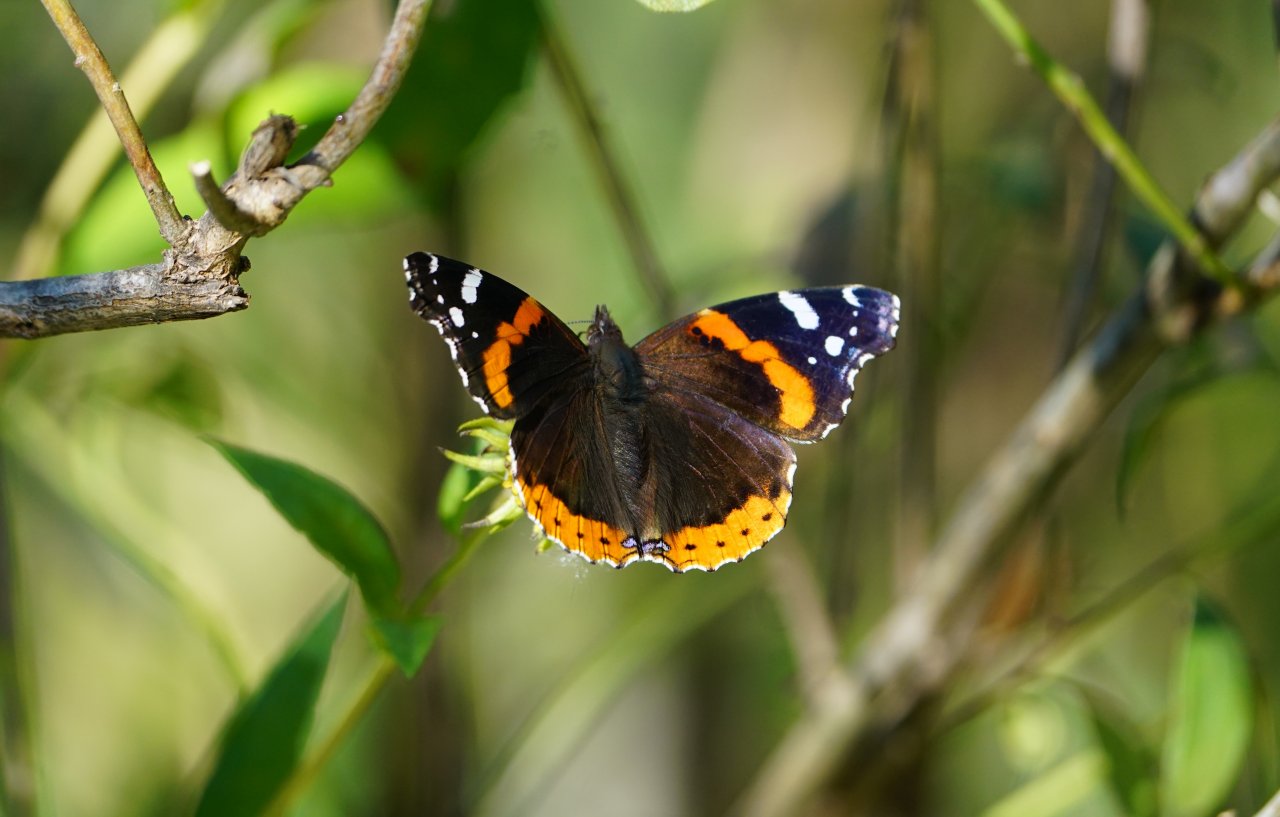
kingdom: Animalia
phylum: Arthropoda
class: Insecta
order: Lepidoptera
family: Nymphalidae
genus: Vanessa
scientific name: Vanessa atalanta
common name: Red Admiral
